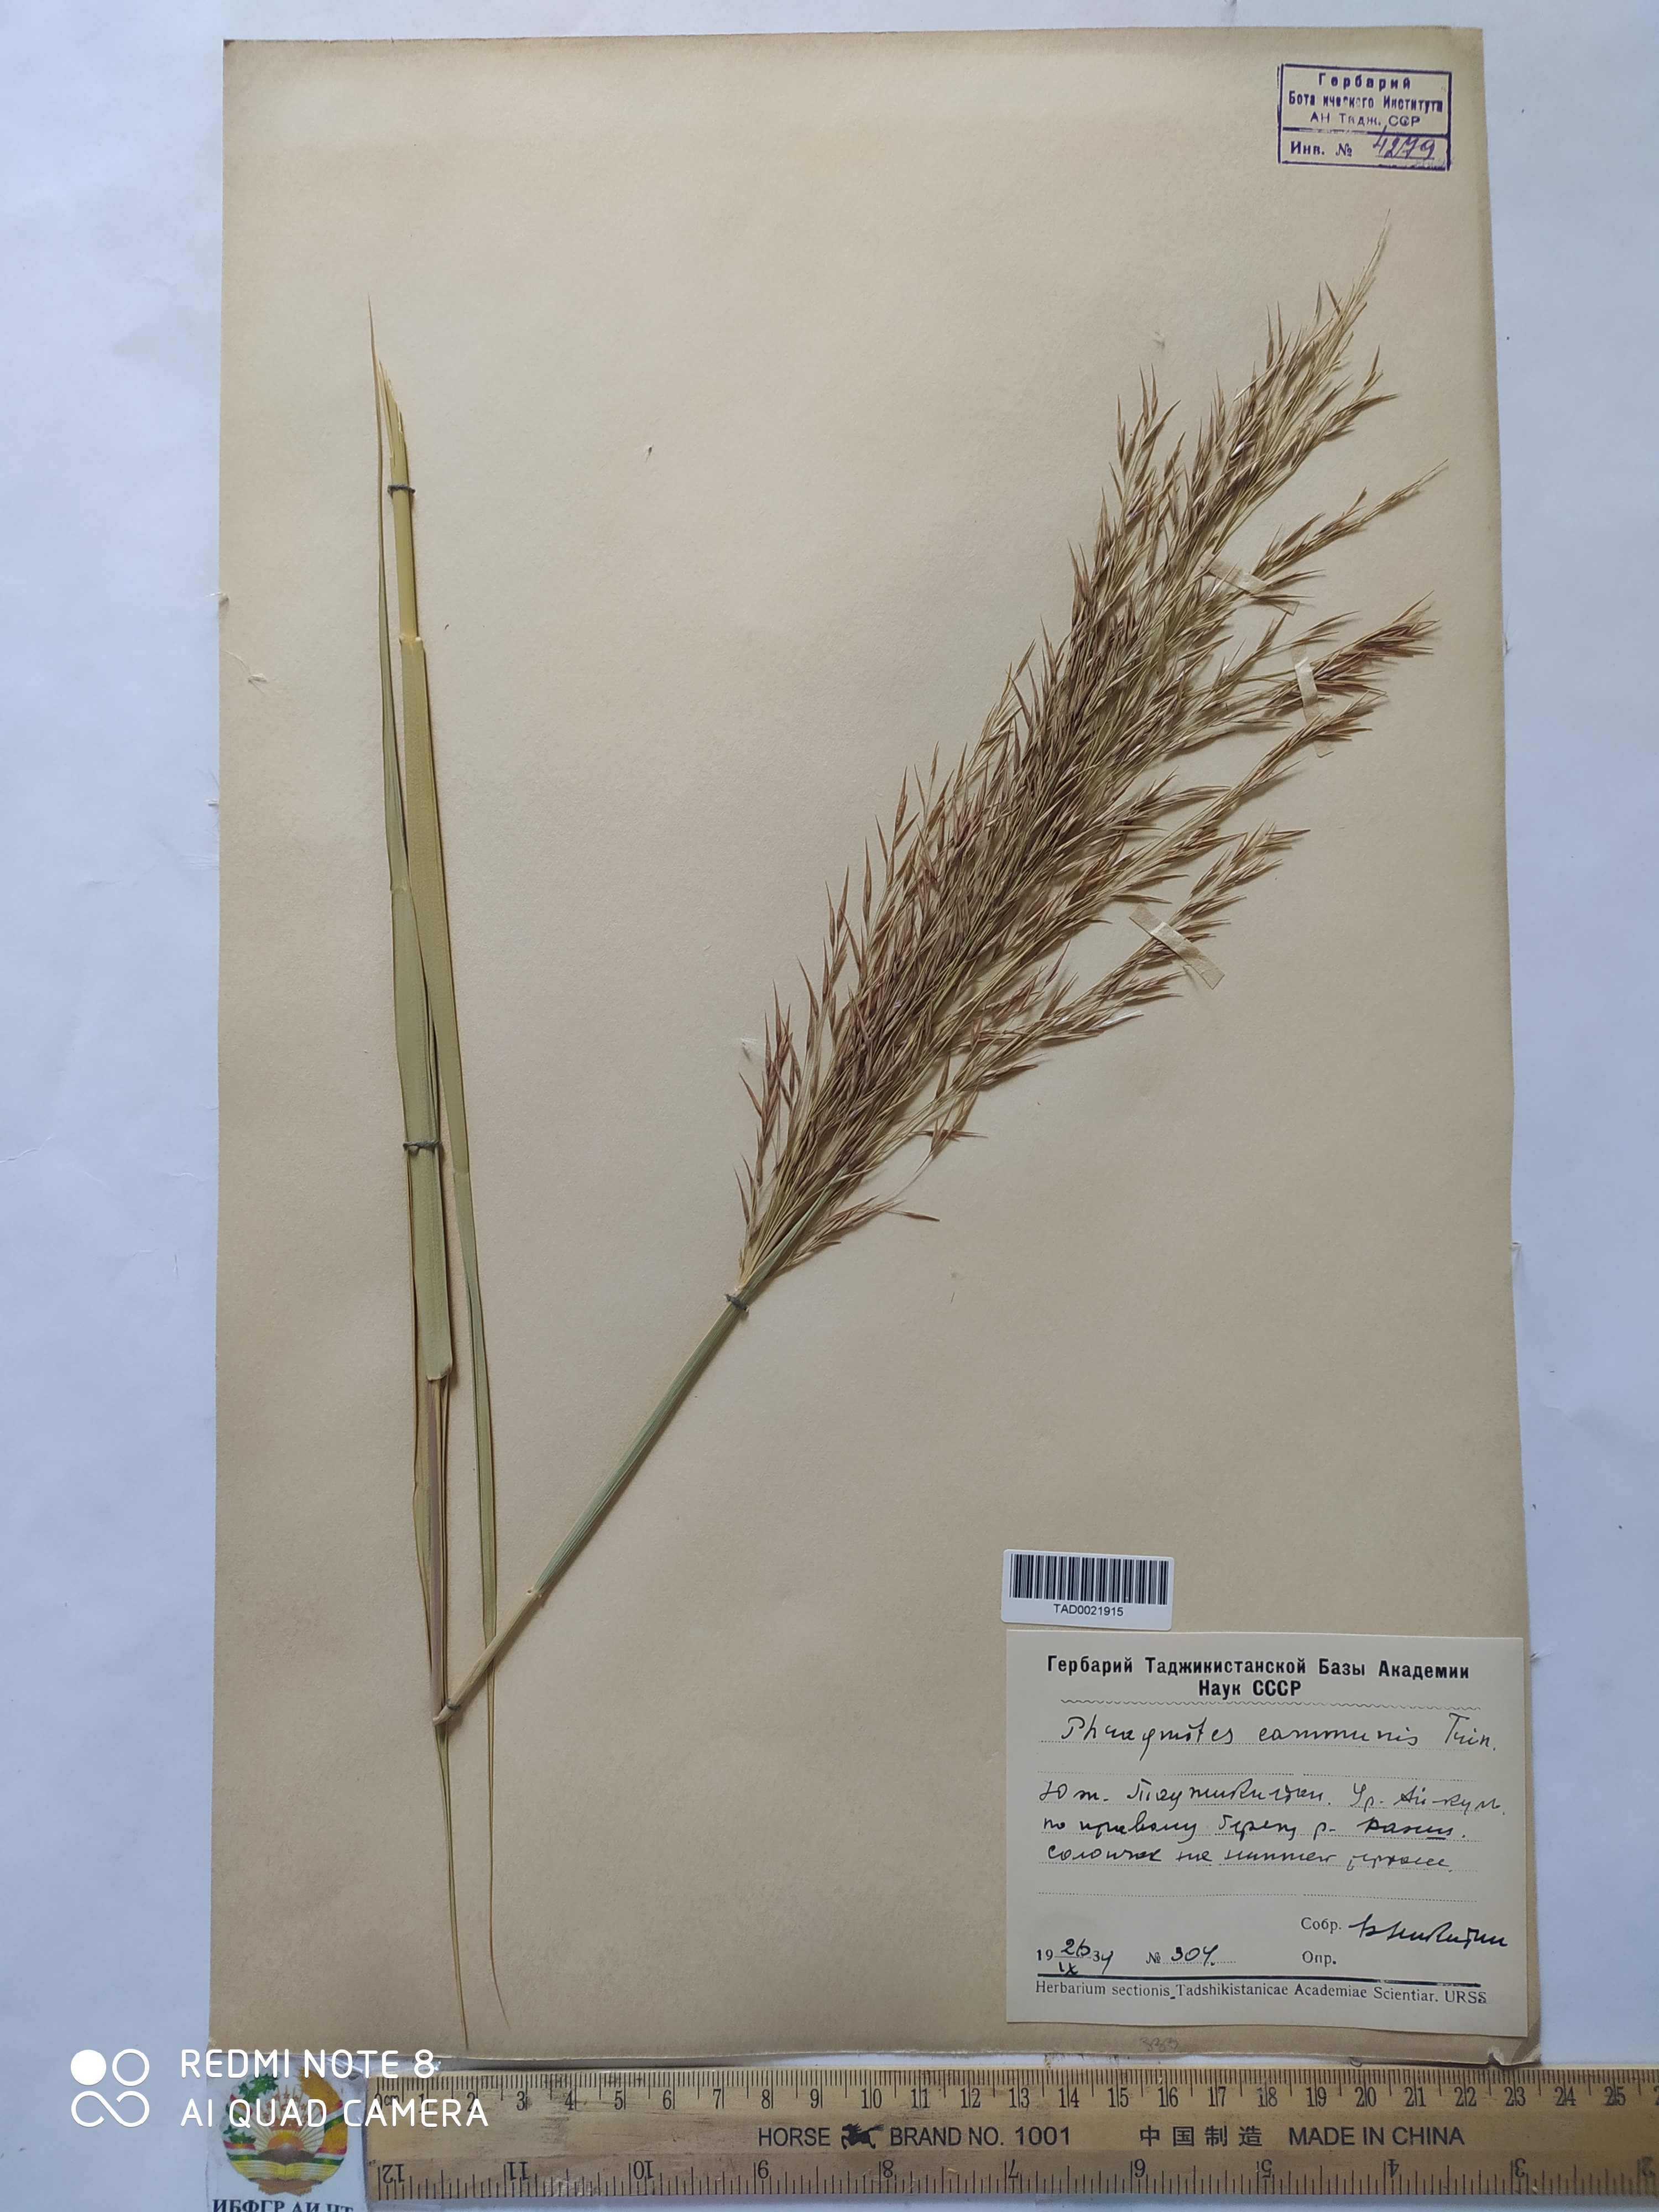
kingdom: Plantae
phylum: Tracheophyta
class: Liliopsida
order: Poales
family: Poaceae
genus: Phragmites
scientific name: Phragmites australis
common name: Common reed
